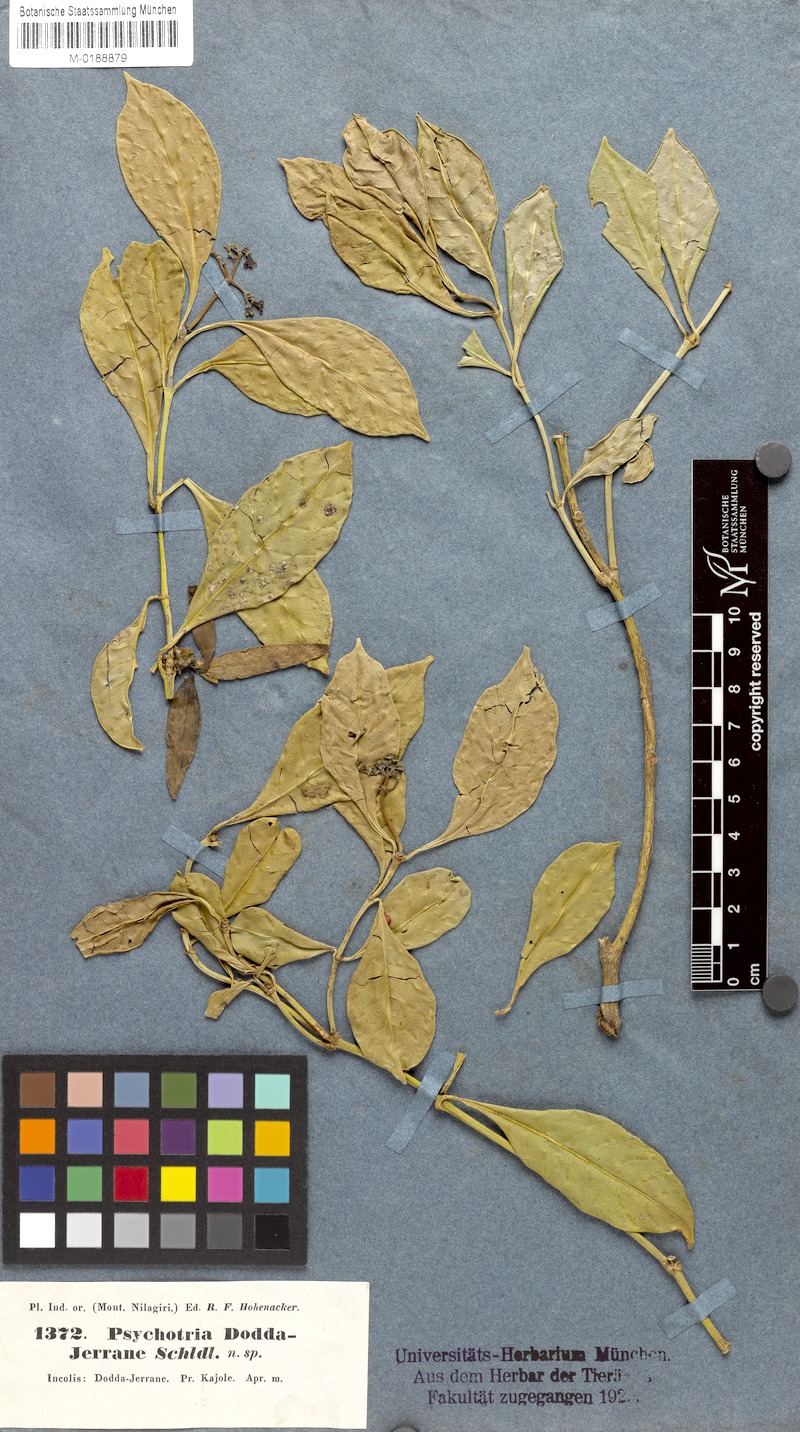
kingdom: Plantae
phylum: Tracheophyta
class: Magnoliopsida
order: Gentianales
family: Rubiaceae
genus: Psychotria
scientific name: Psychotria bisulcata
